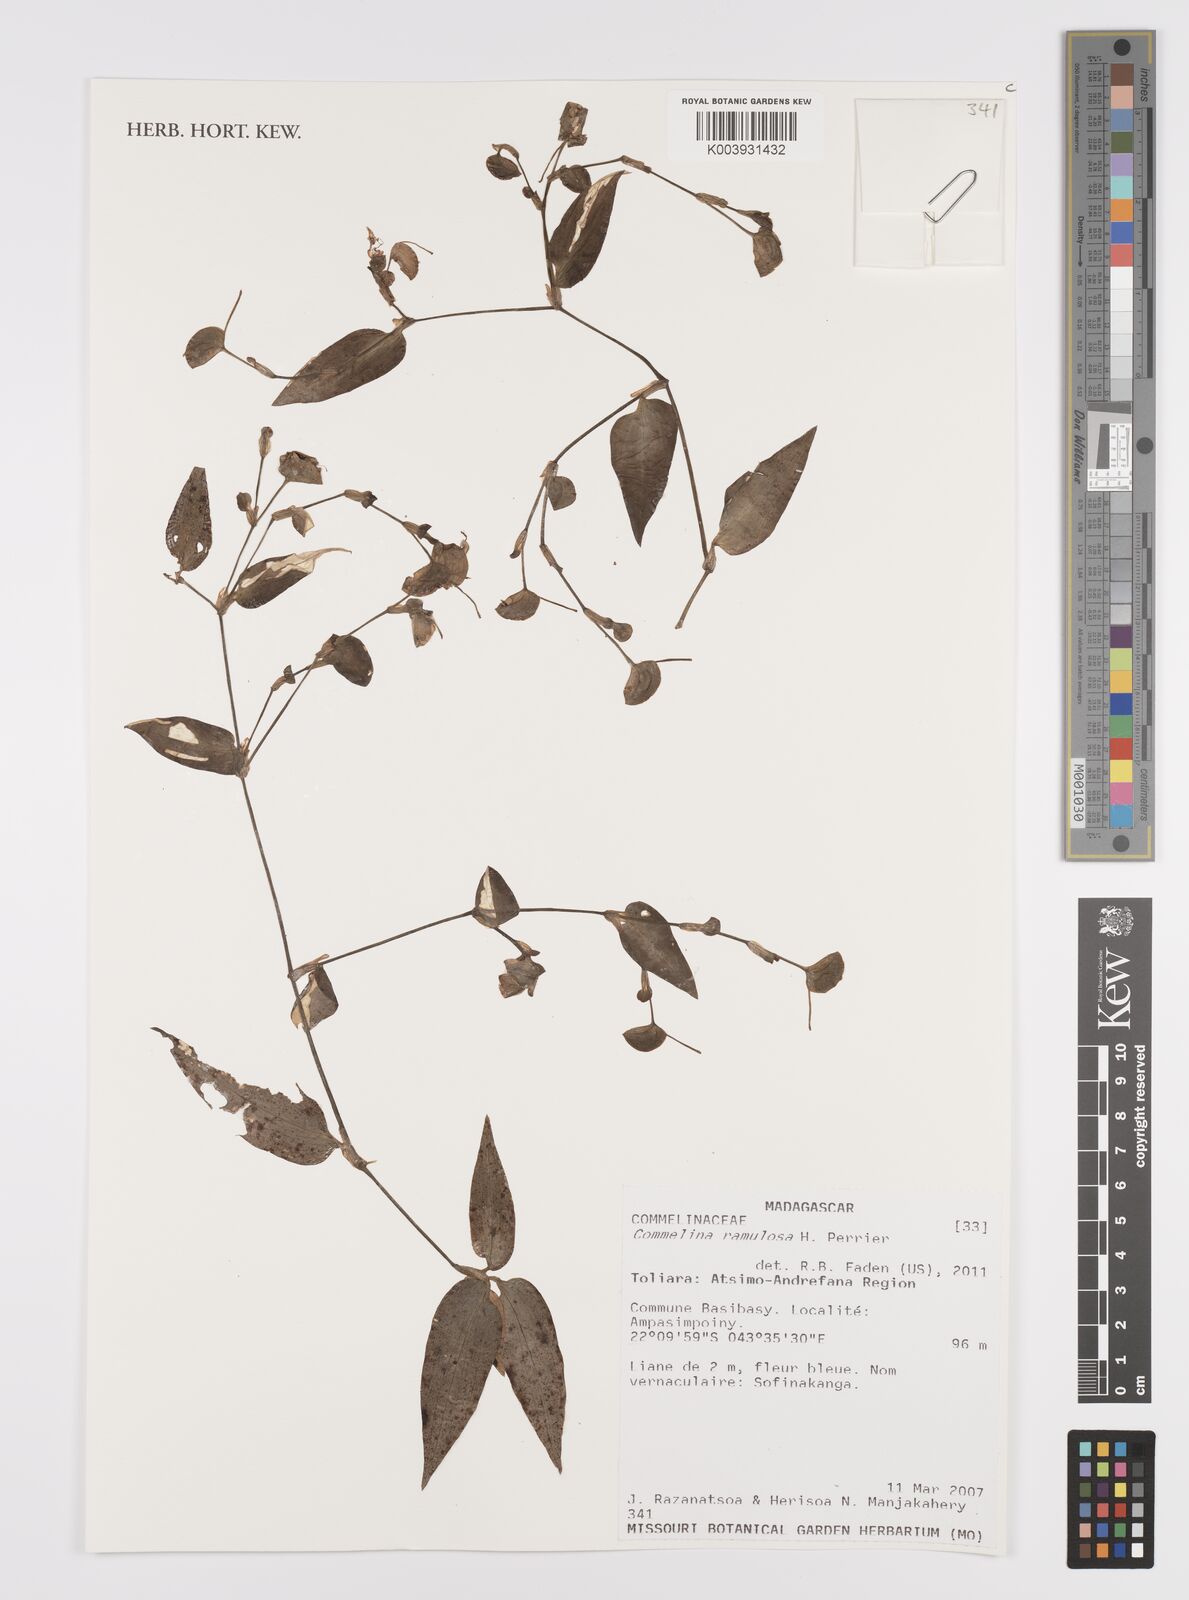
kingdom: Plantae
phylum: Tracheophyta
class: Liliopsida
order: Commelinales
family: Commelinaceae
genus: Commelina
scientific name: Commelina ramulosa
